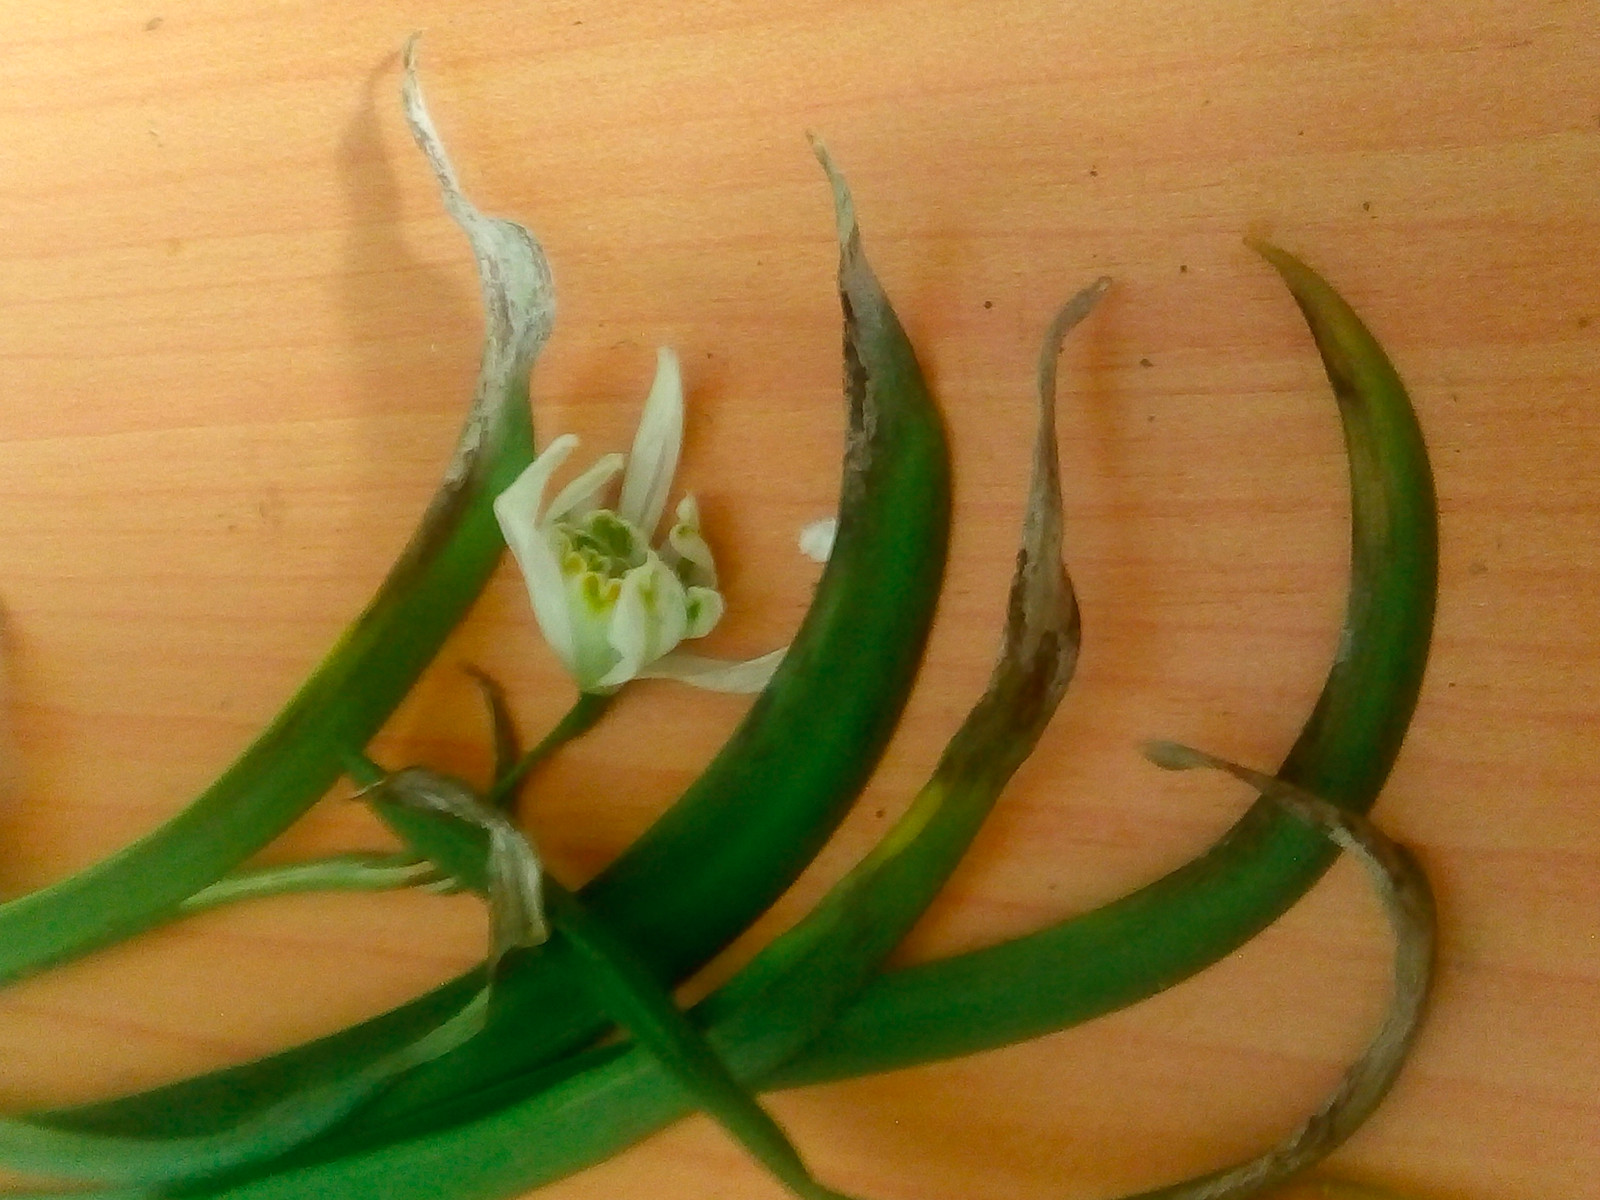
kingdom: Fungi
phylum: Ascomycota
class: Dothideomycetes
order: Mycosphaerellales
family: Mycosphaerellaceae
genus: Ramularia
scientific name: Ramularia septata
